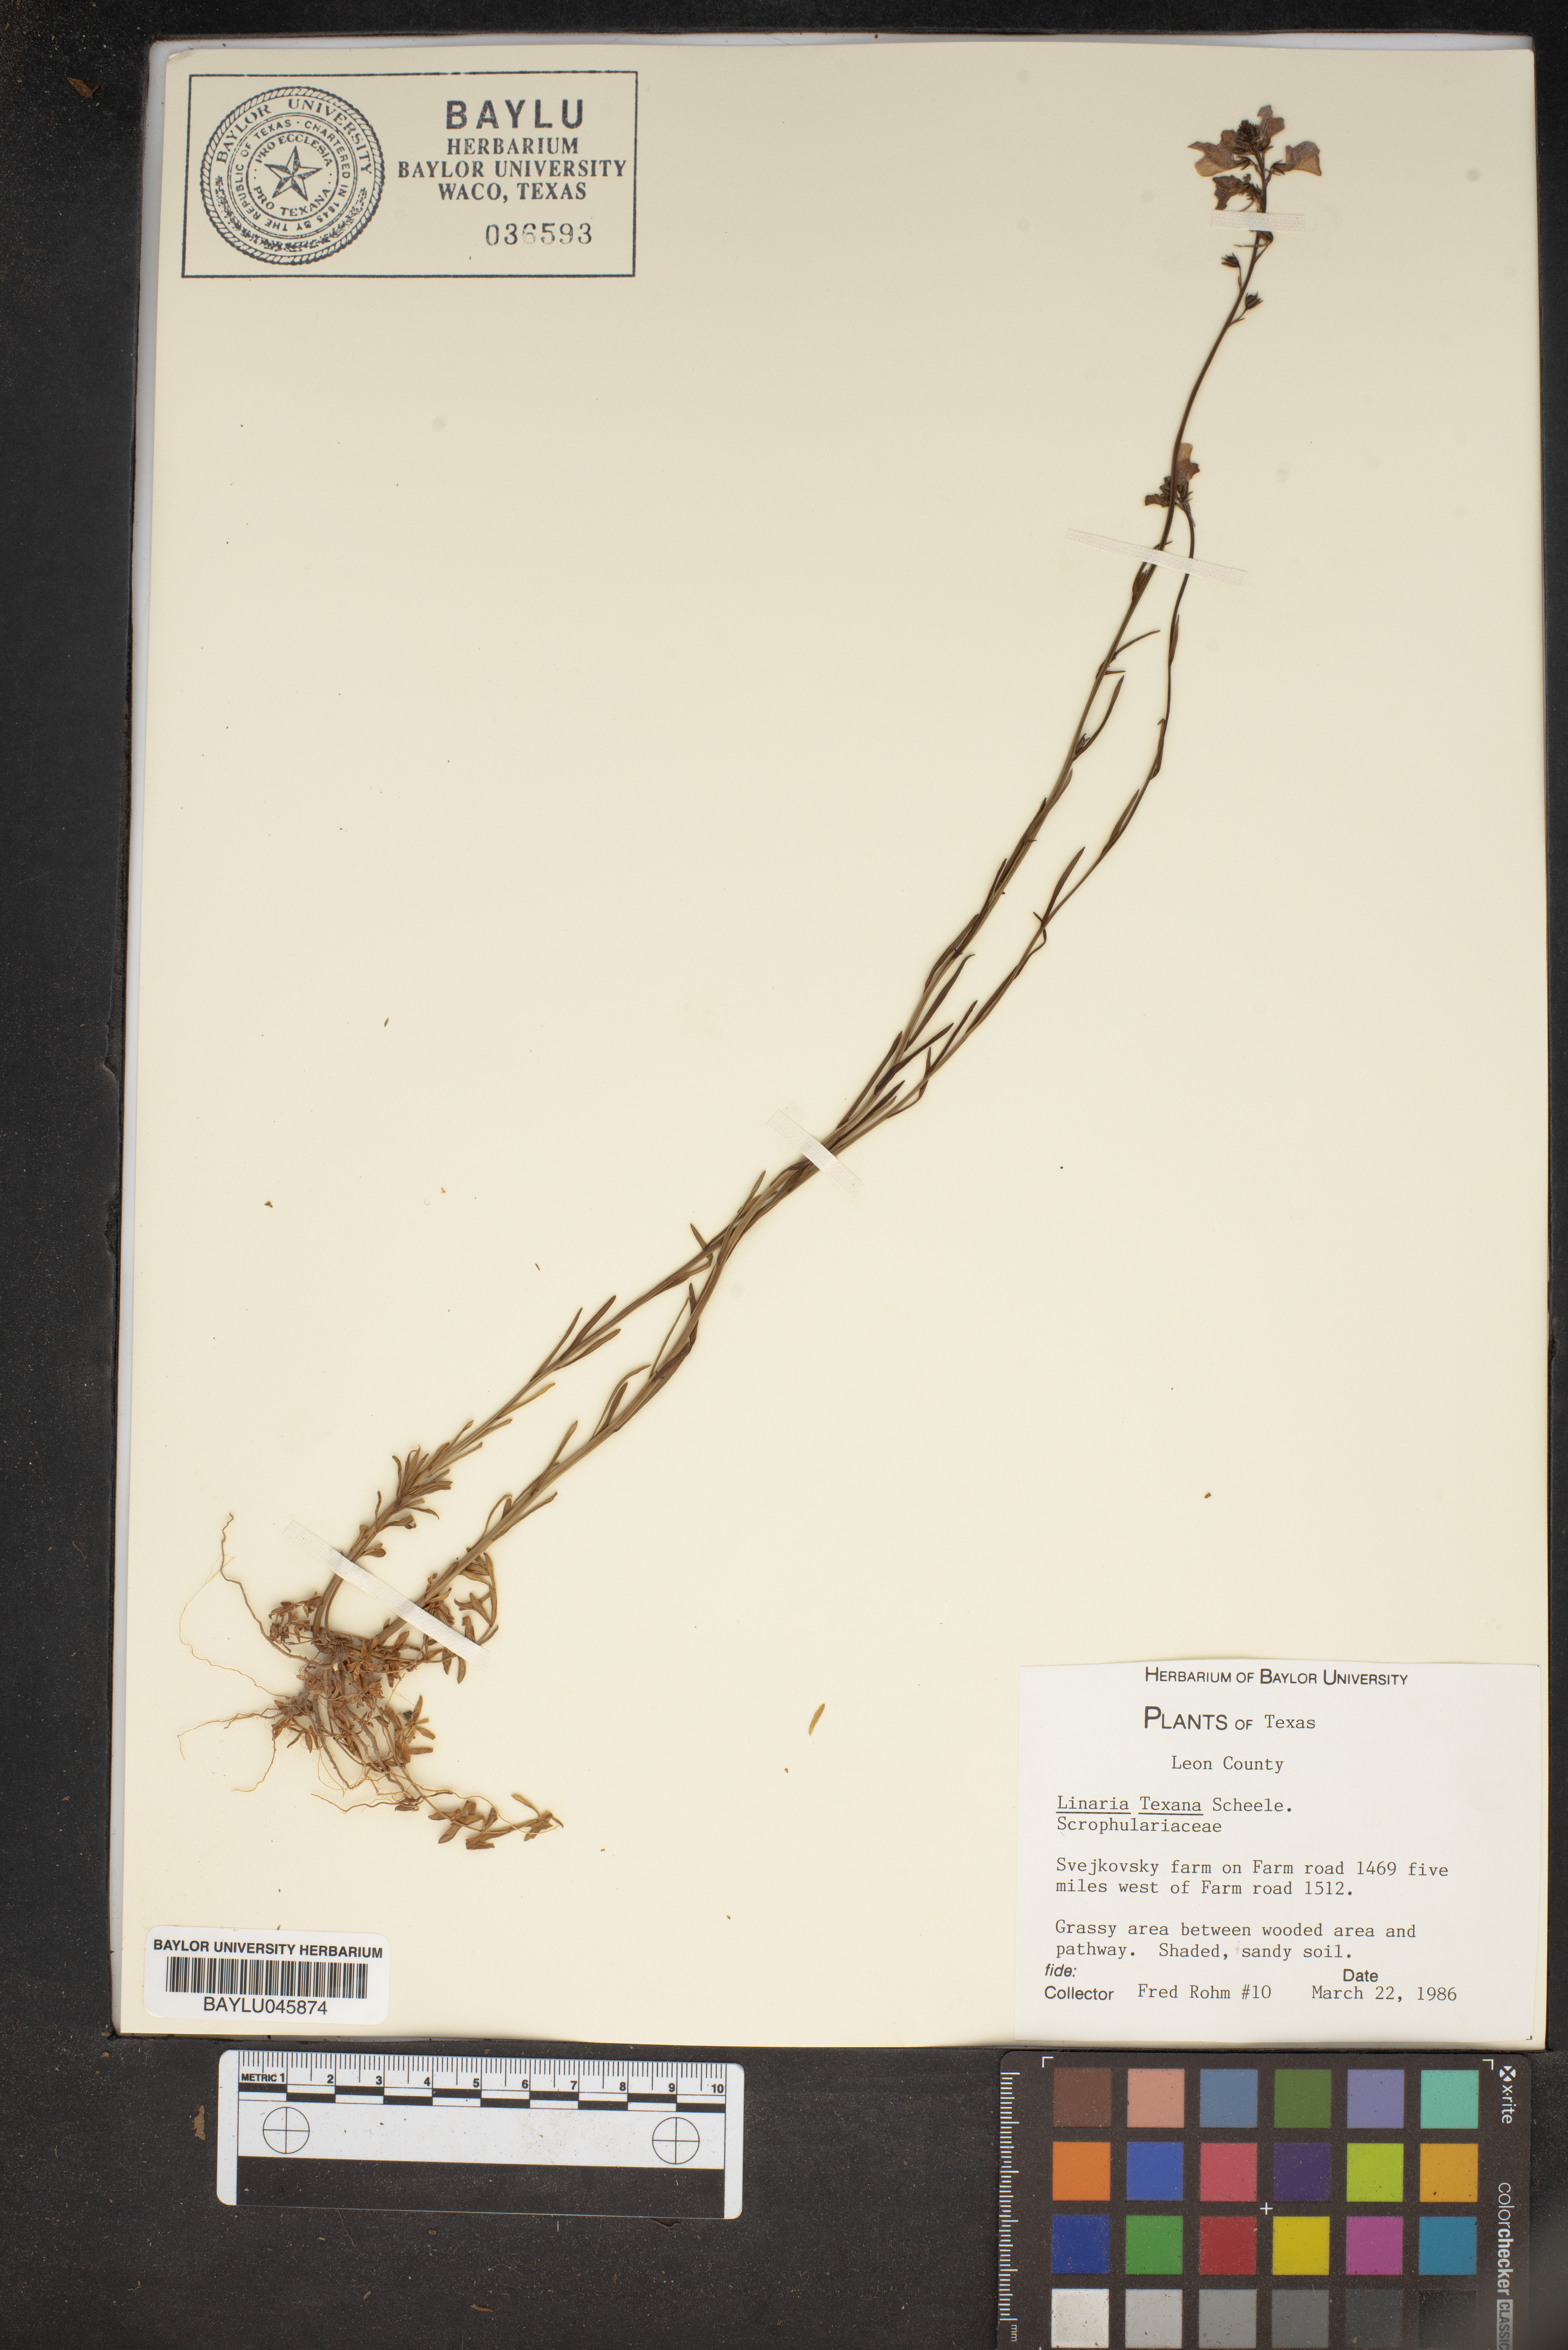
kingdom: Plantae
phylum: Tracheophyta
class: Magnoliopsida
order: Lamiales
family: Plantaginaceae
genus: Nuttallanthus
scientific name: Nuttallanthus texanus
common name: Texas toadflax
